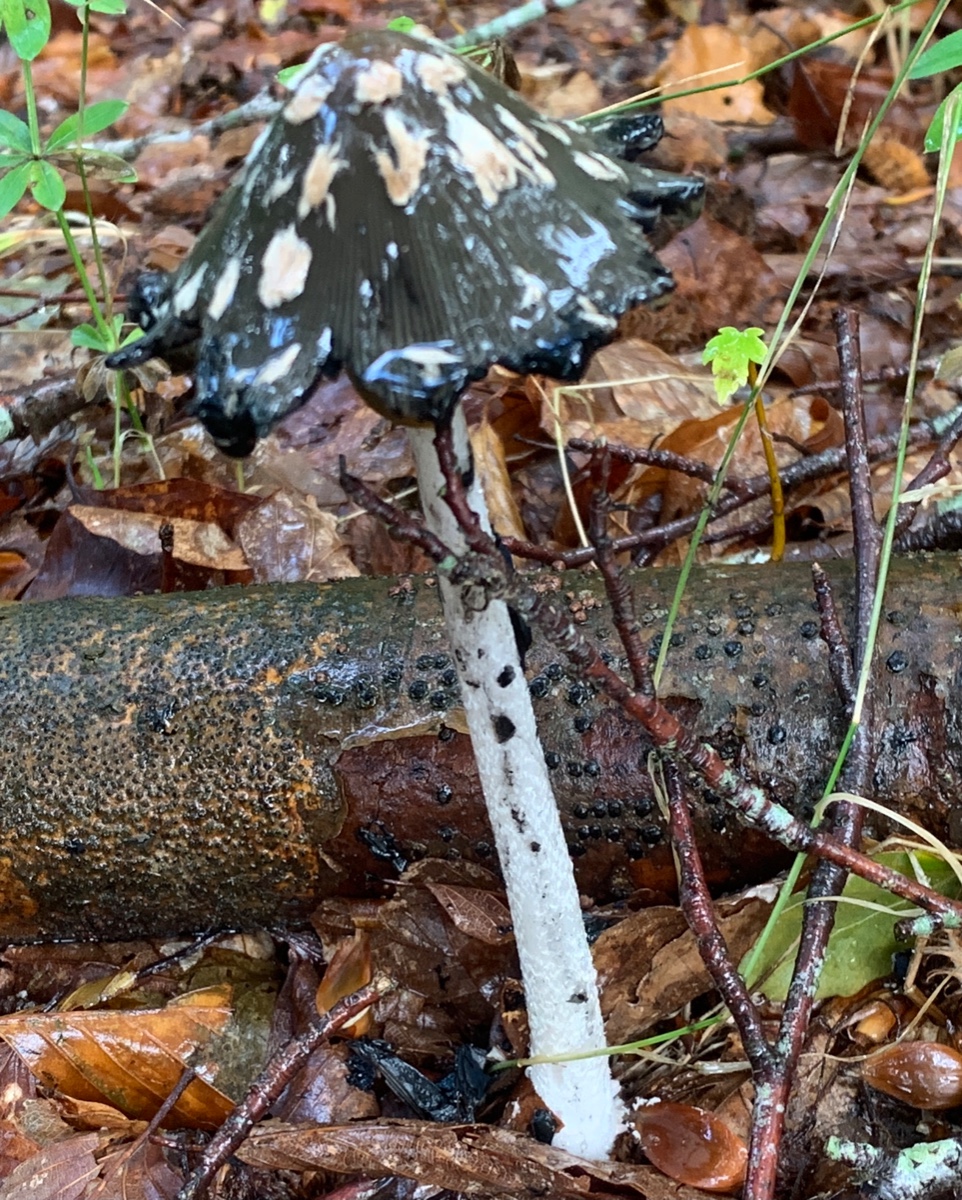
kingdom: Fungi
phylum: Basidiomycota
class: Agaricomycetes
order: Agaricales
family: Psathyrellaceae
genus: Coprinopsis
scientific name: Coprinopsis picacea
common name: skade-blækhat
